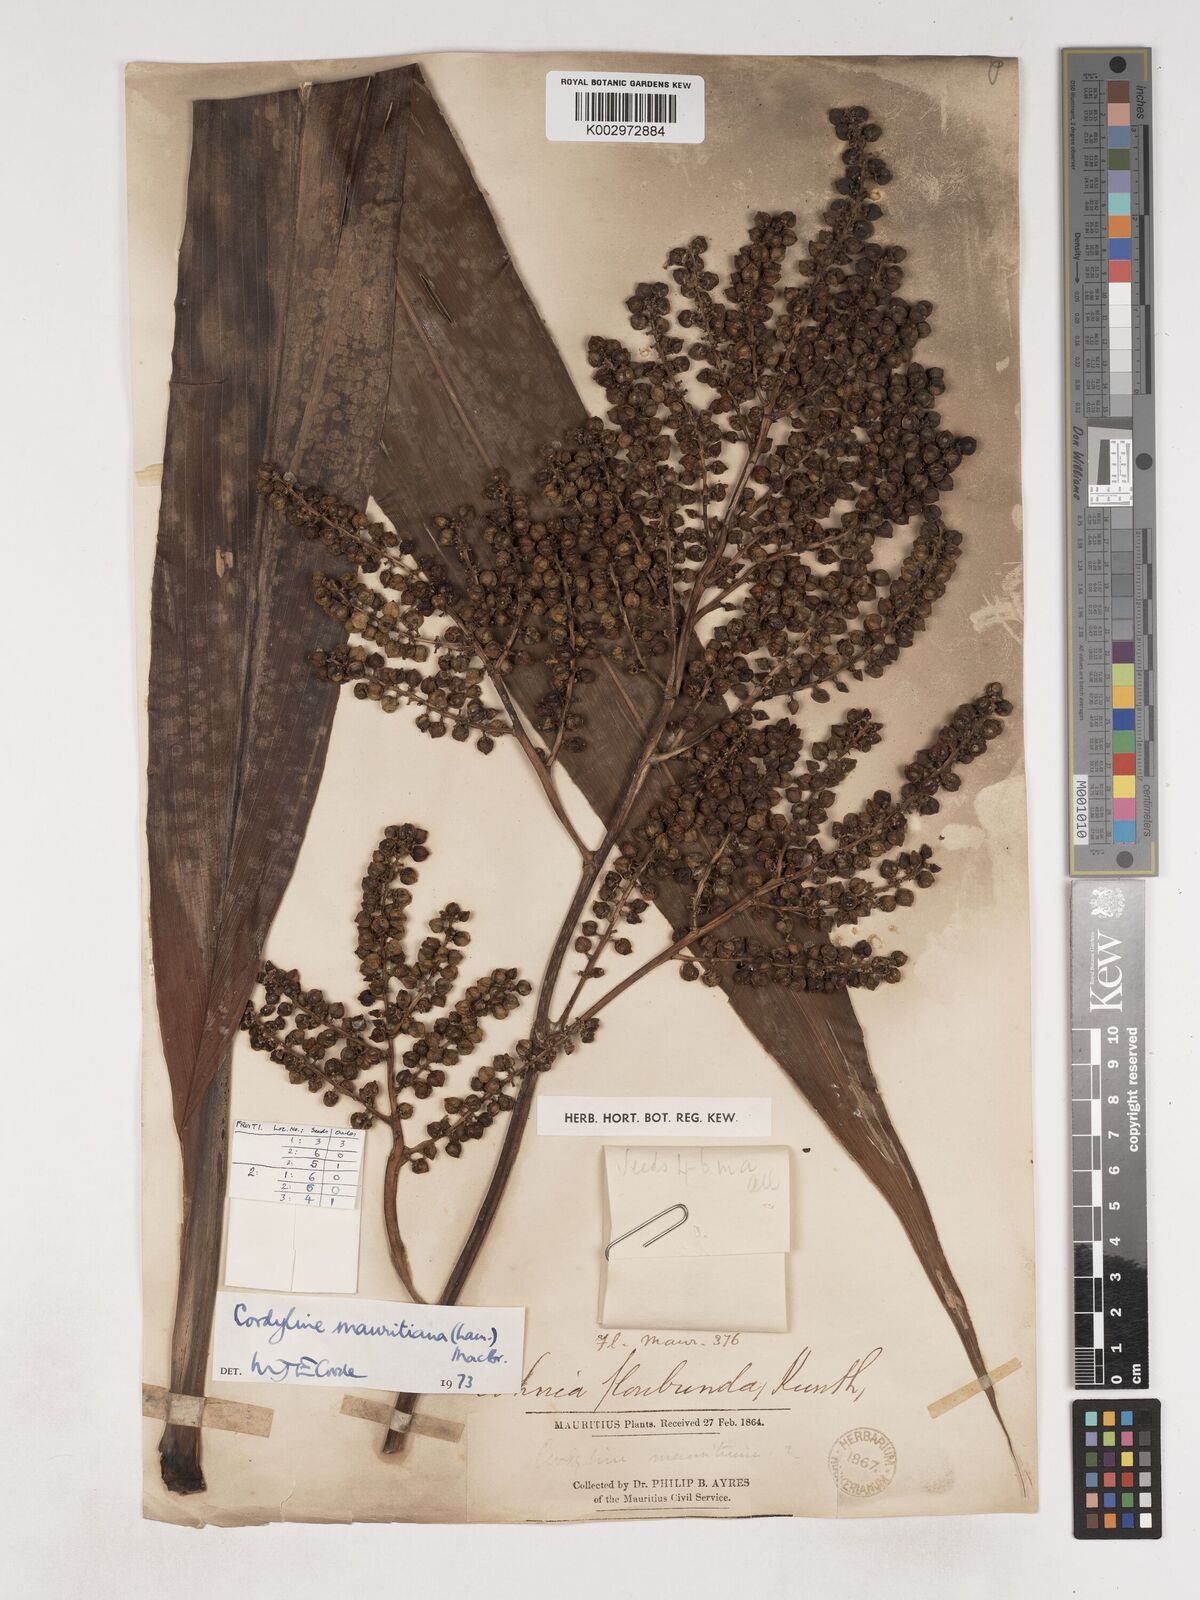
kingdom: Plantae
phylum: Tracheophyta
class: Liliopsida
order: Asparagales
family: Asparagaceae
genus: Cordyline
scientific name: Cordyline mauritiana
